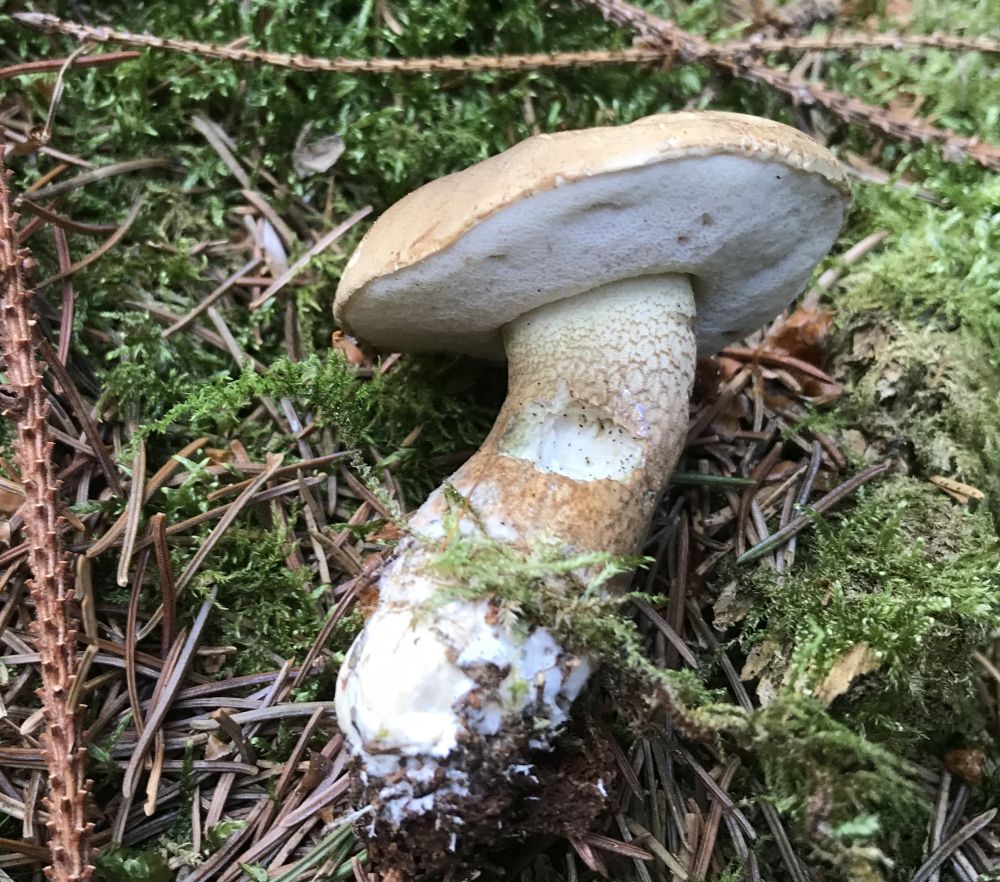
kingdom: Fungi
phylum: Basidiomycota
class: Agaricomycetes
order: Boletales
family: Boletaceae
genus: Tylopilus
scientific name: Tylopilus felleus
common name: galderørhat
